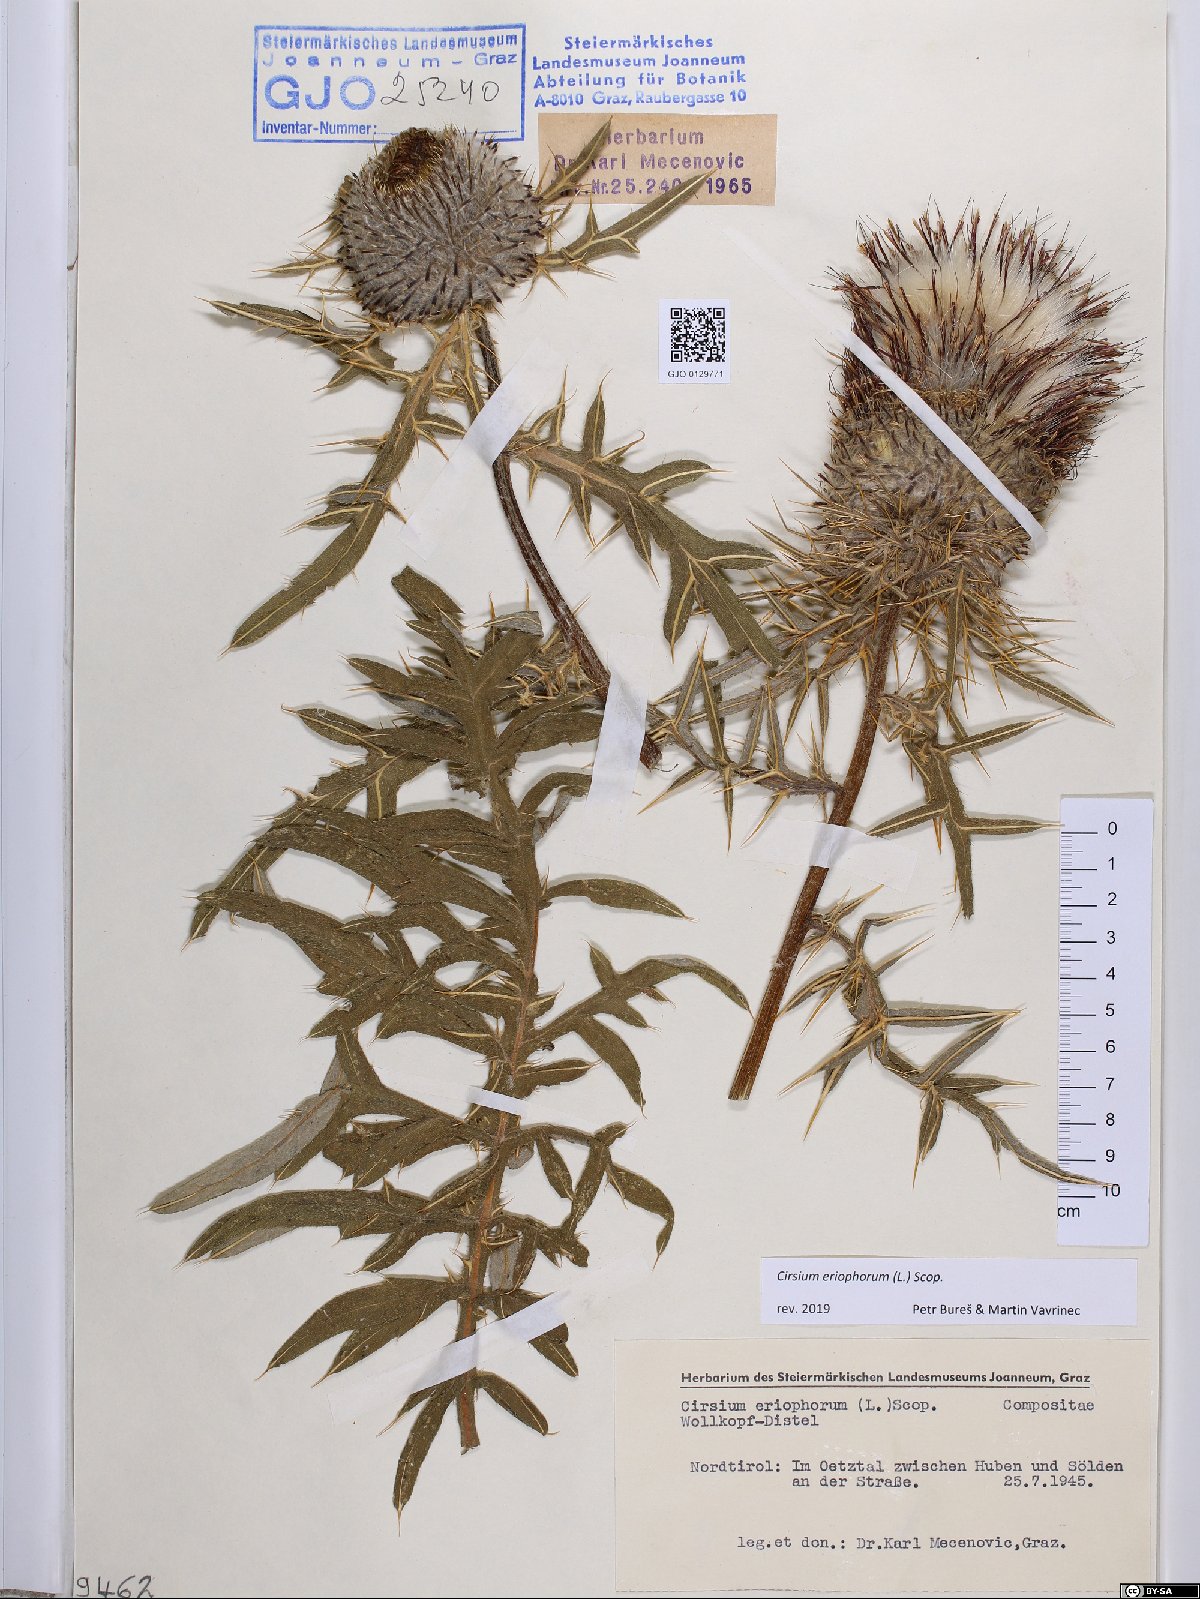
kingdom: Plantae
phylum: Tracheophyta
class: Magnoliopsida
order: Asterales
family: Asteraceae
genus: Lophiolepis
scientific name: Lophiolepis eriophora
